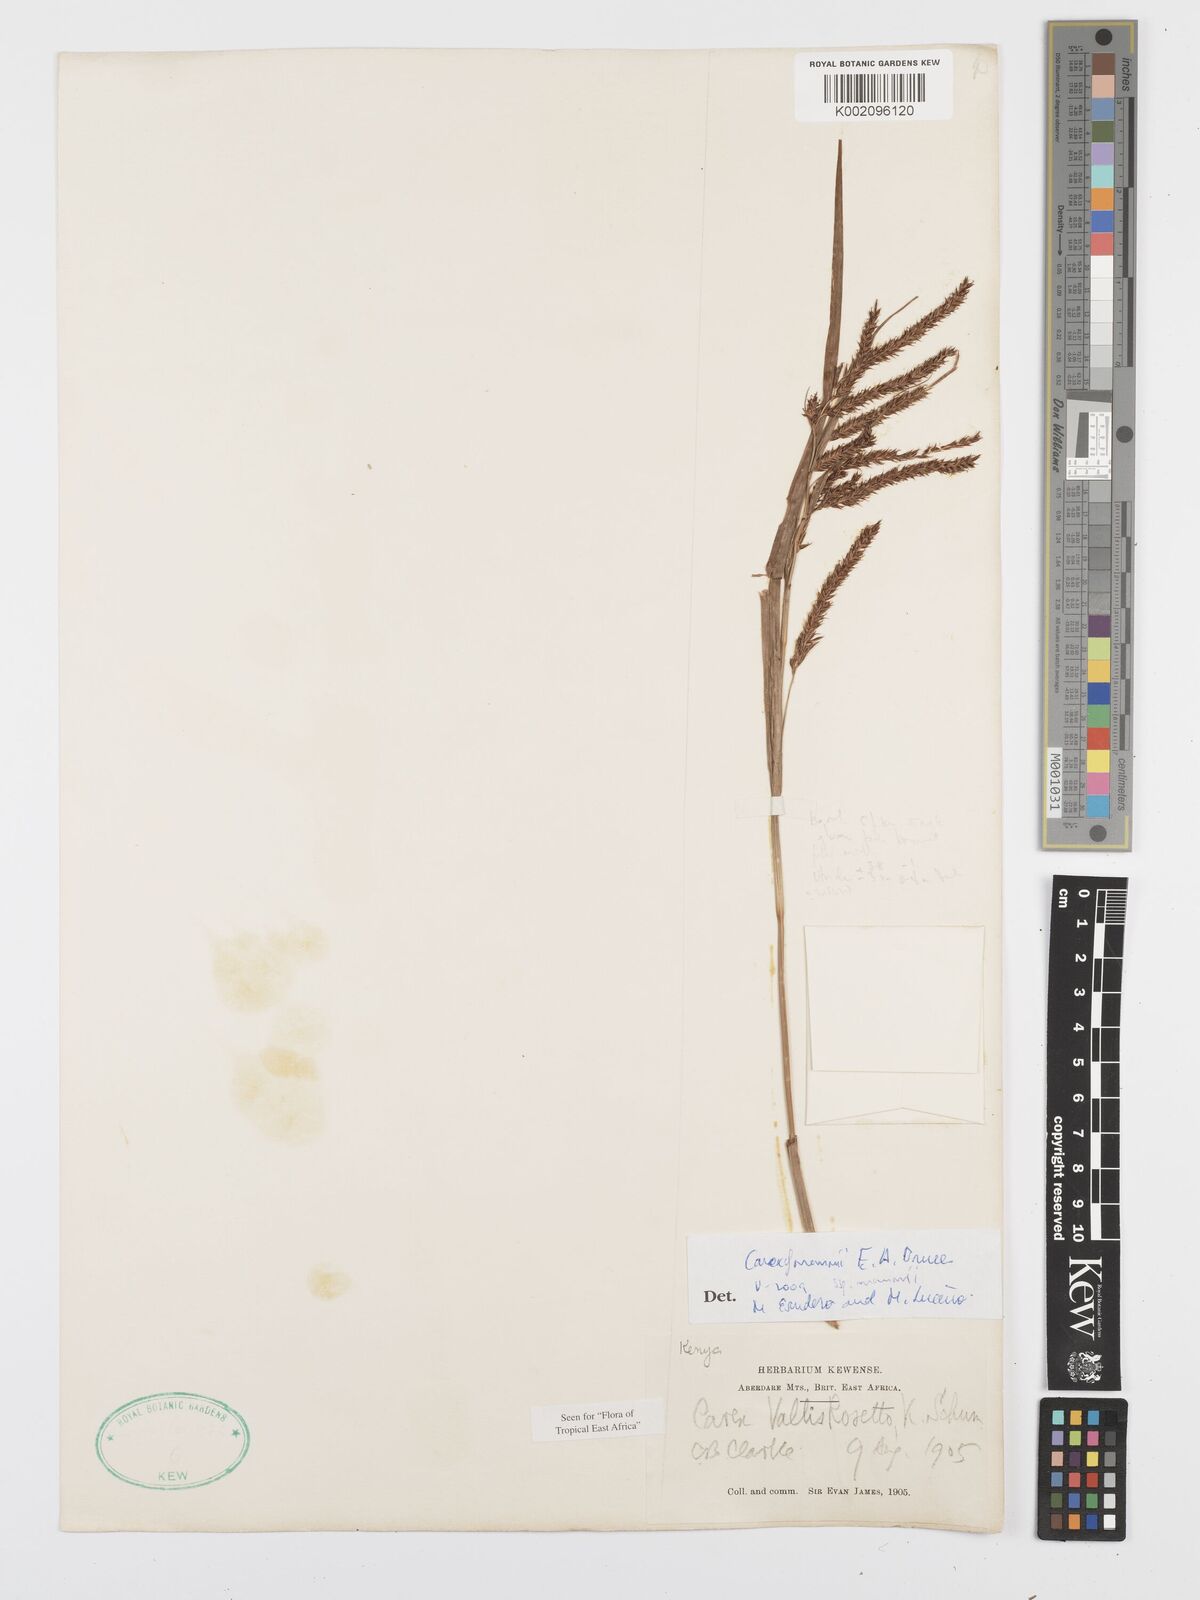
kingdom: Plantae
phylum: Tracheophyta
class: Liliopsida
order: Poales
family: Cyperaceae
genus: Carex
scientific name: Carex mannii
